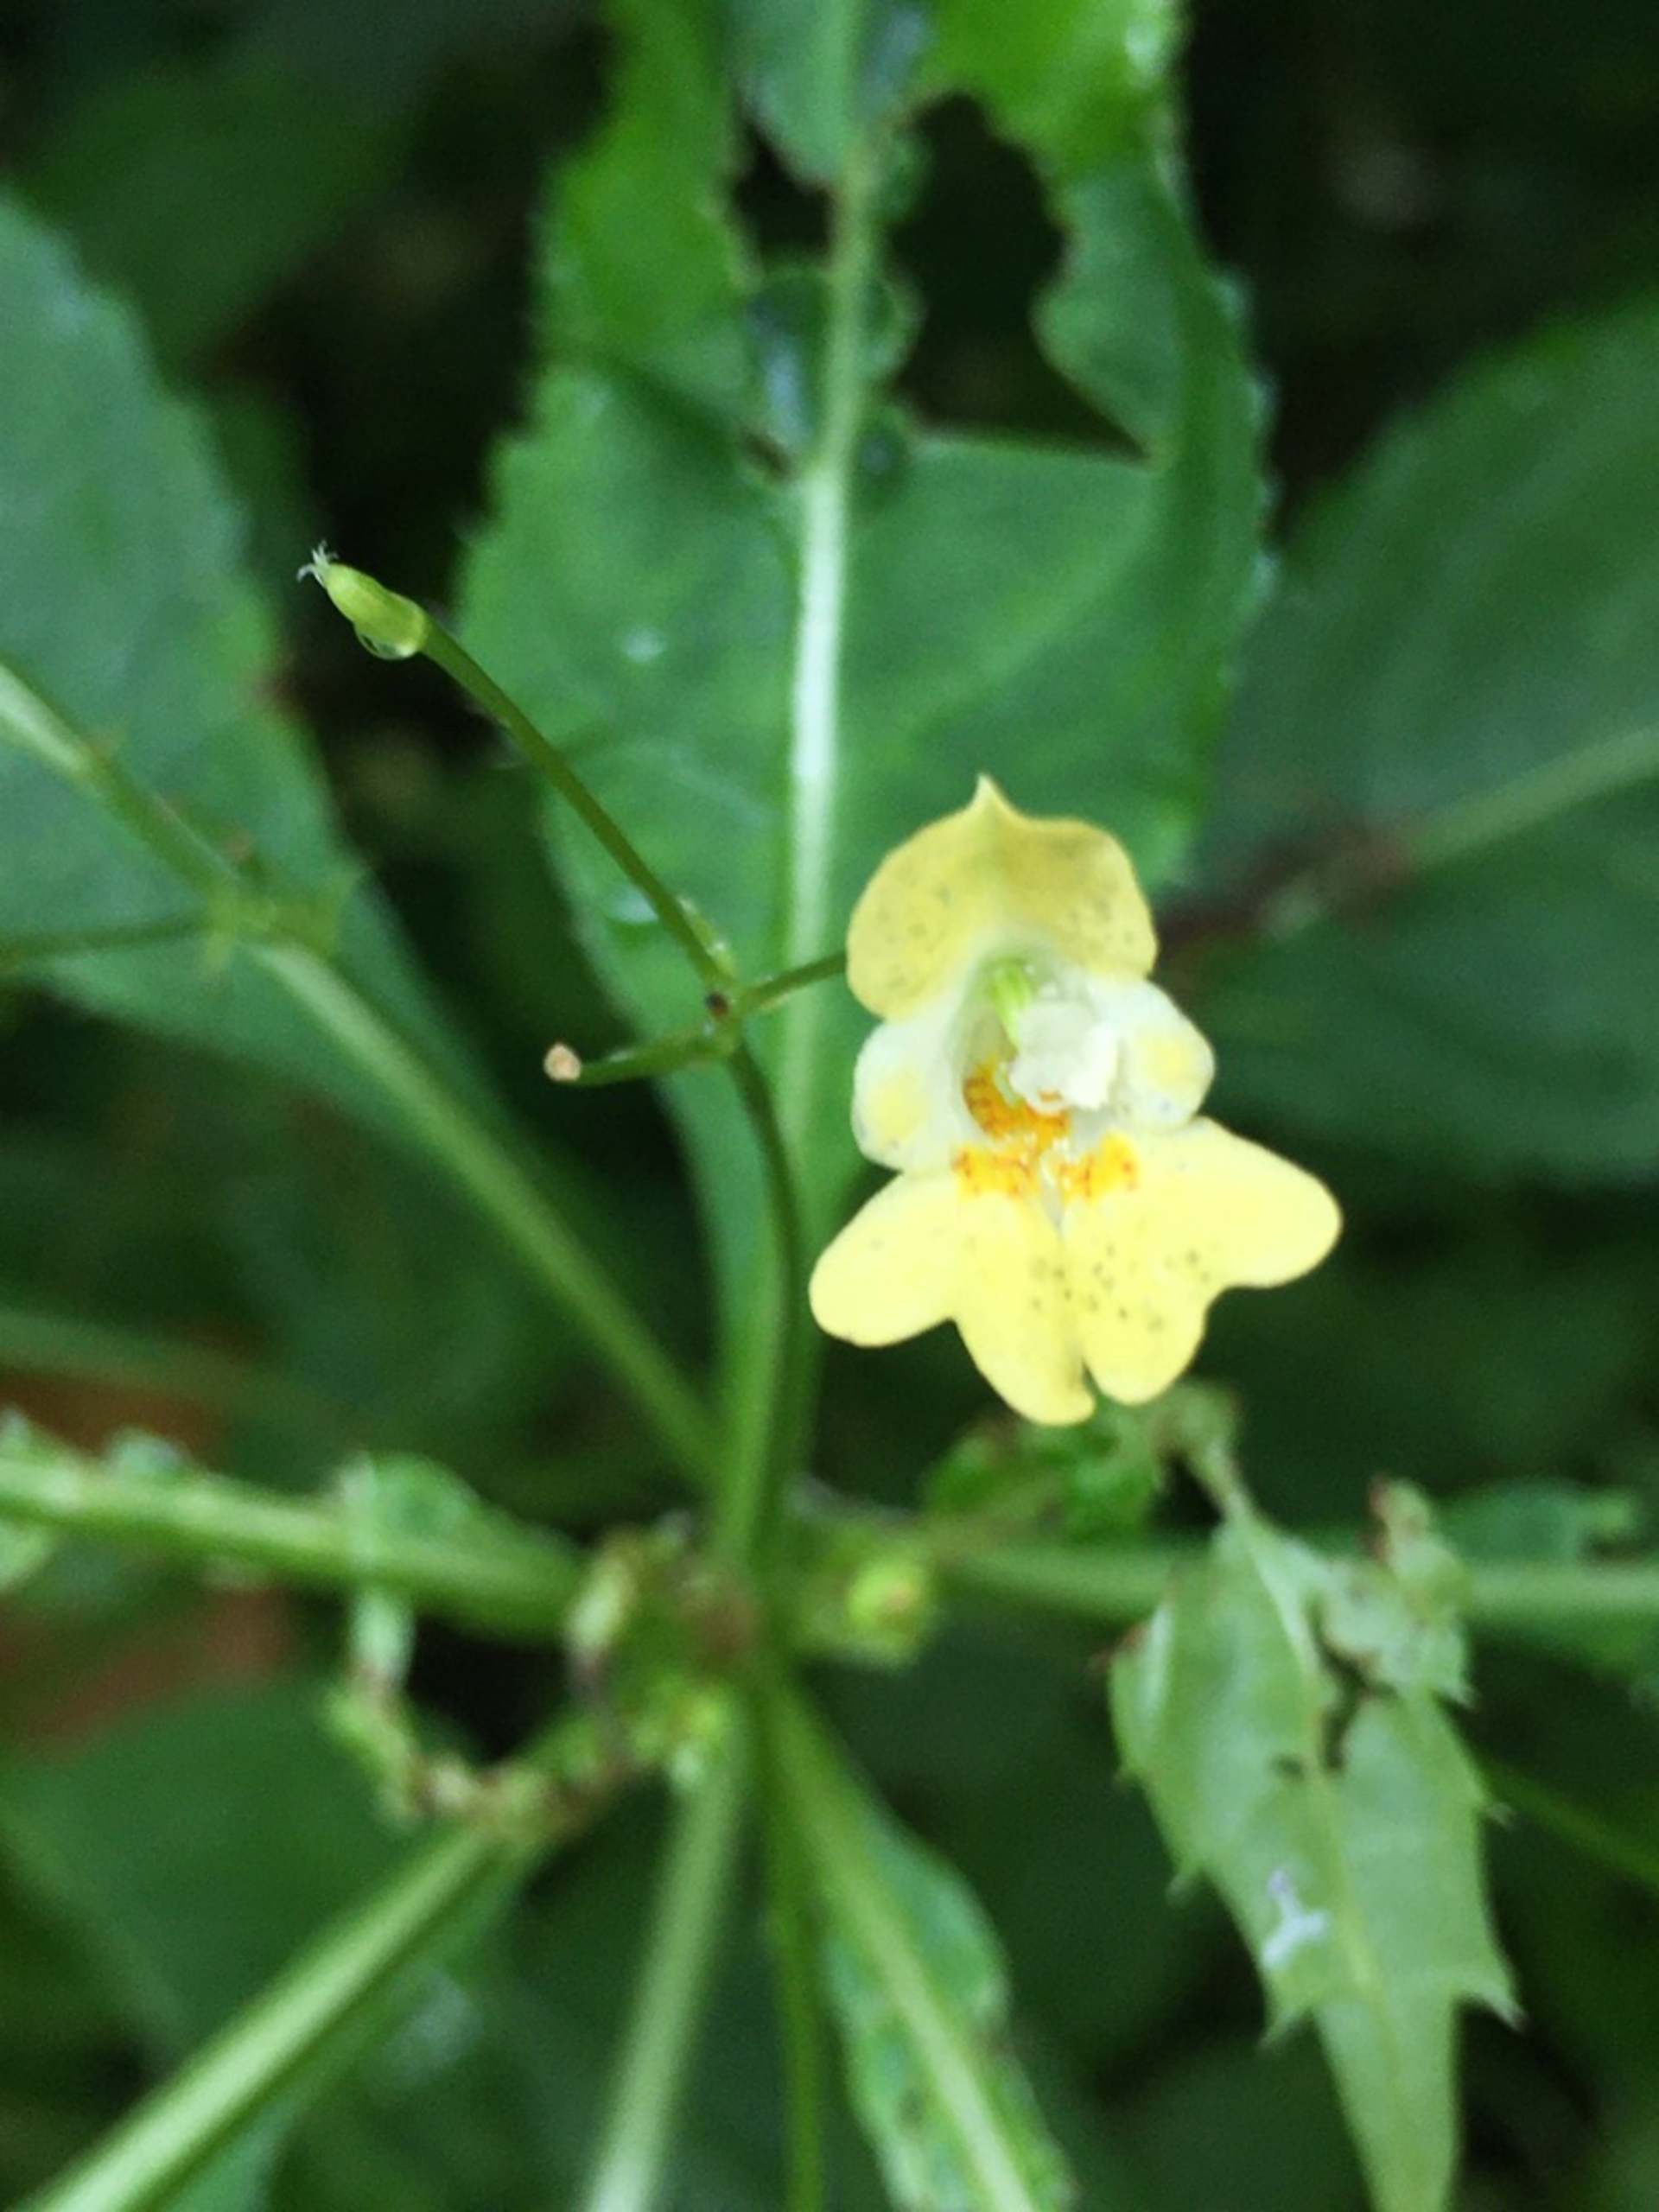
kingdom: Plantae
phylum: Tracheophyta
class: Magnoliopsida
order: Ericales
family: Balsaminaceae
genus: Impatiens
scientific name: Impatiens parviflora
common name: Småblomstret balsamin
